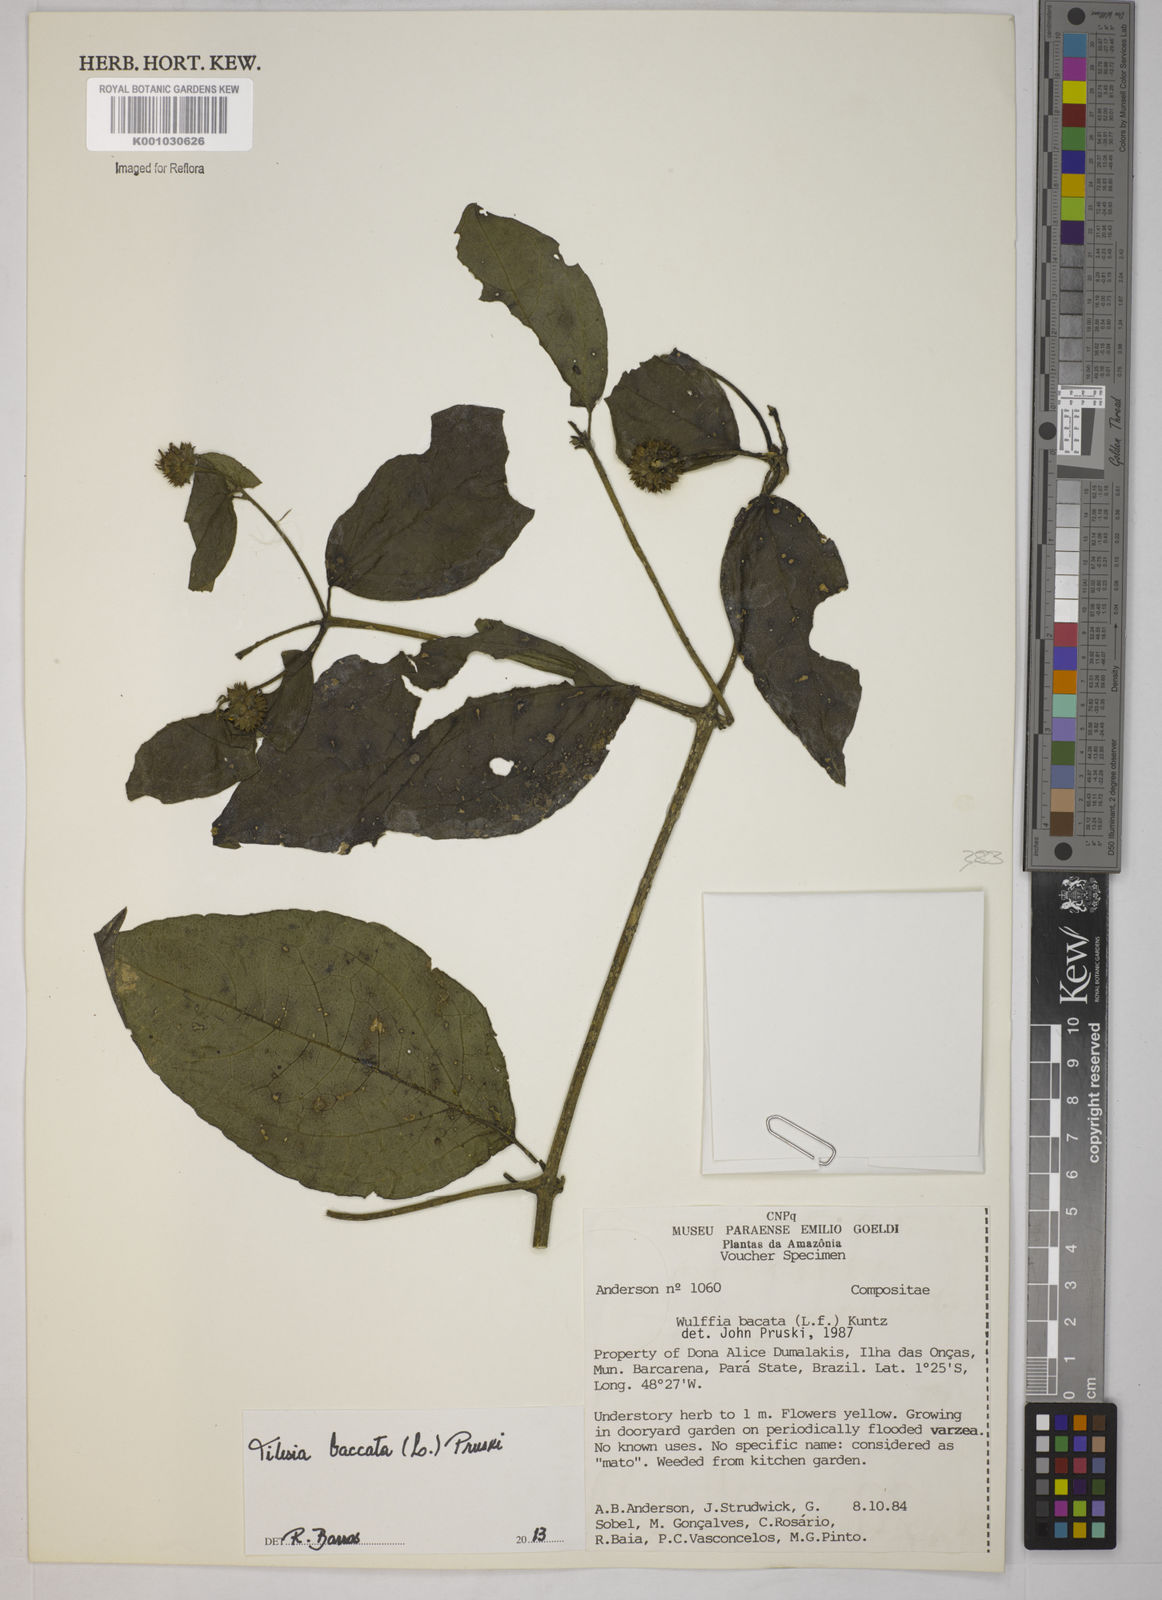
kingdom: Plantae
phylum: Tracheophyta
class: Magnoliopsida
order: Asterales
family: Asteraceae
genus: Tilesia
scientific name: Tilesia baccata
